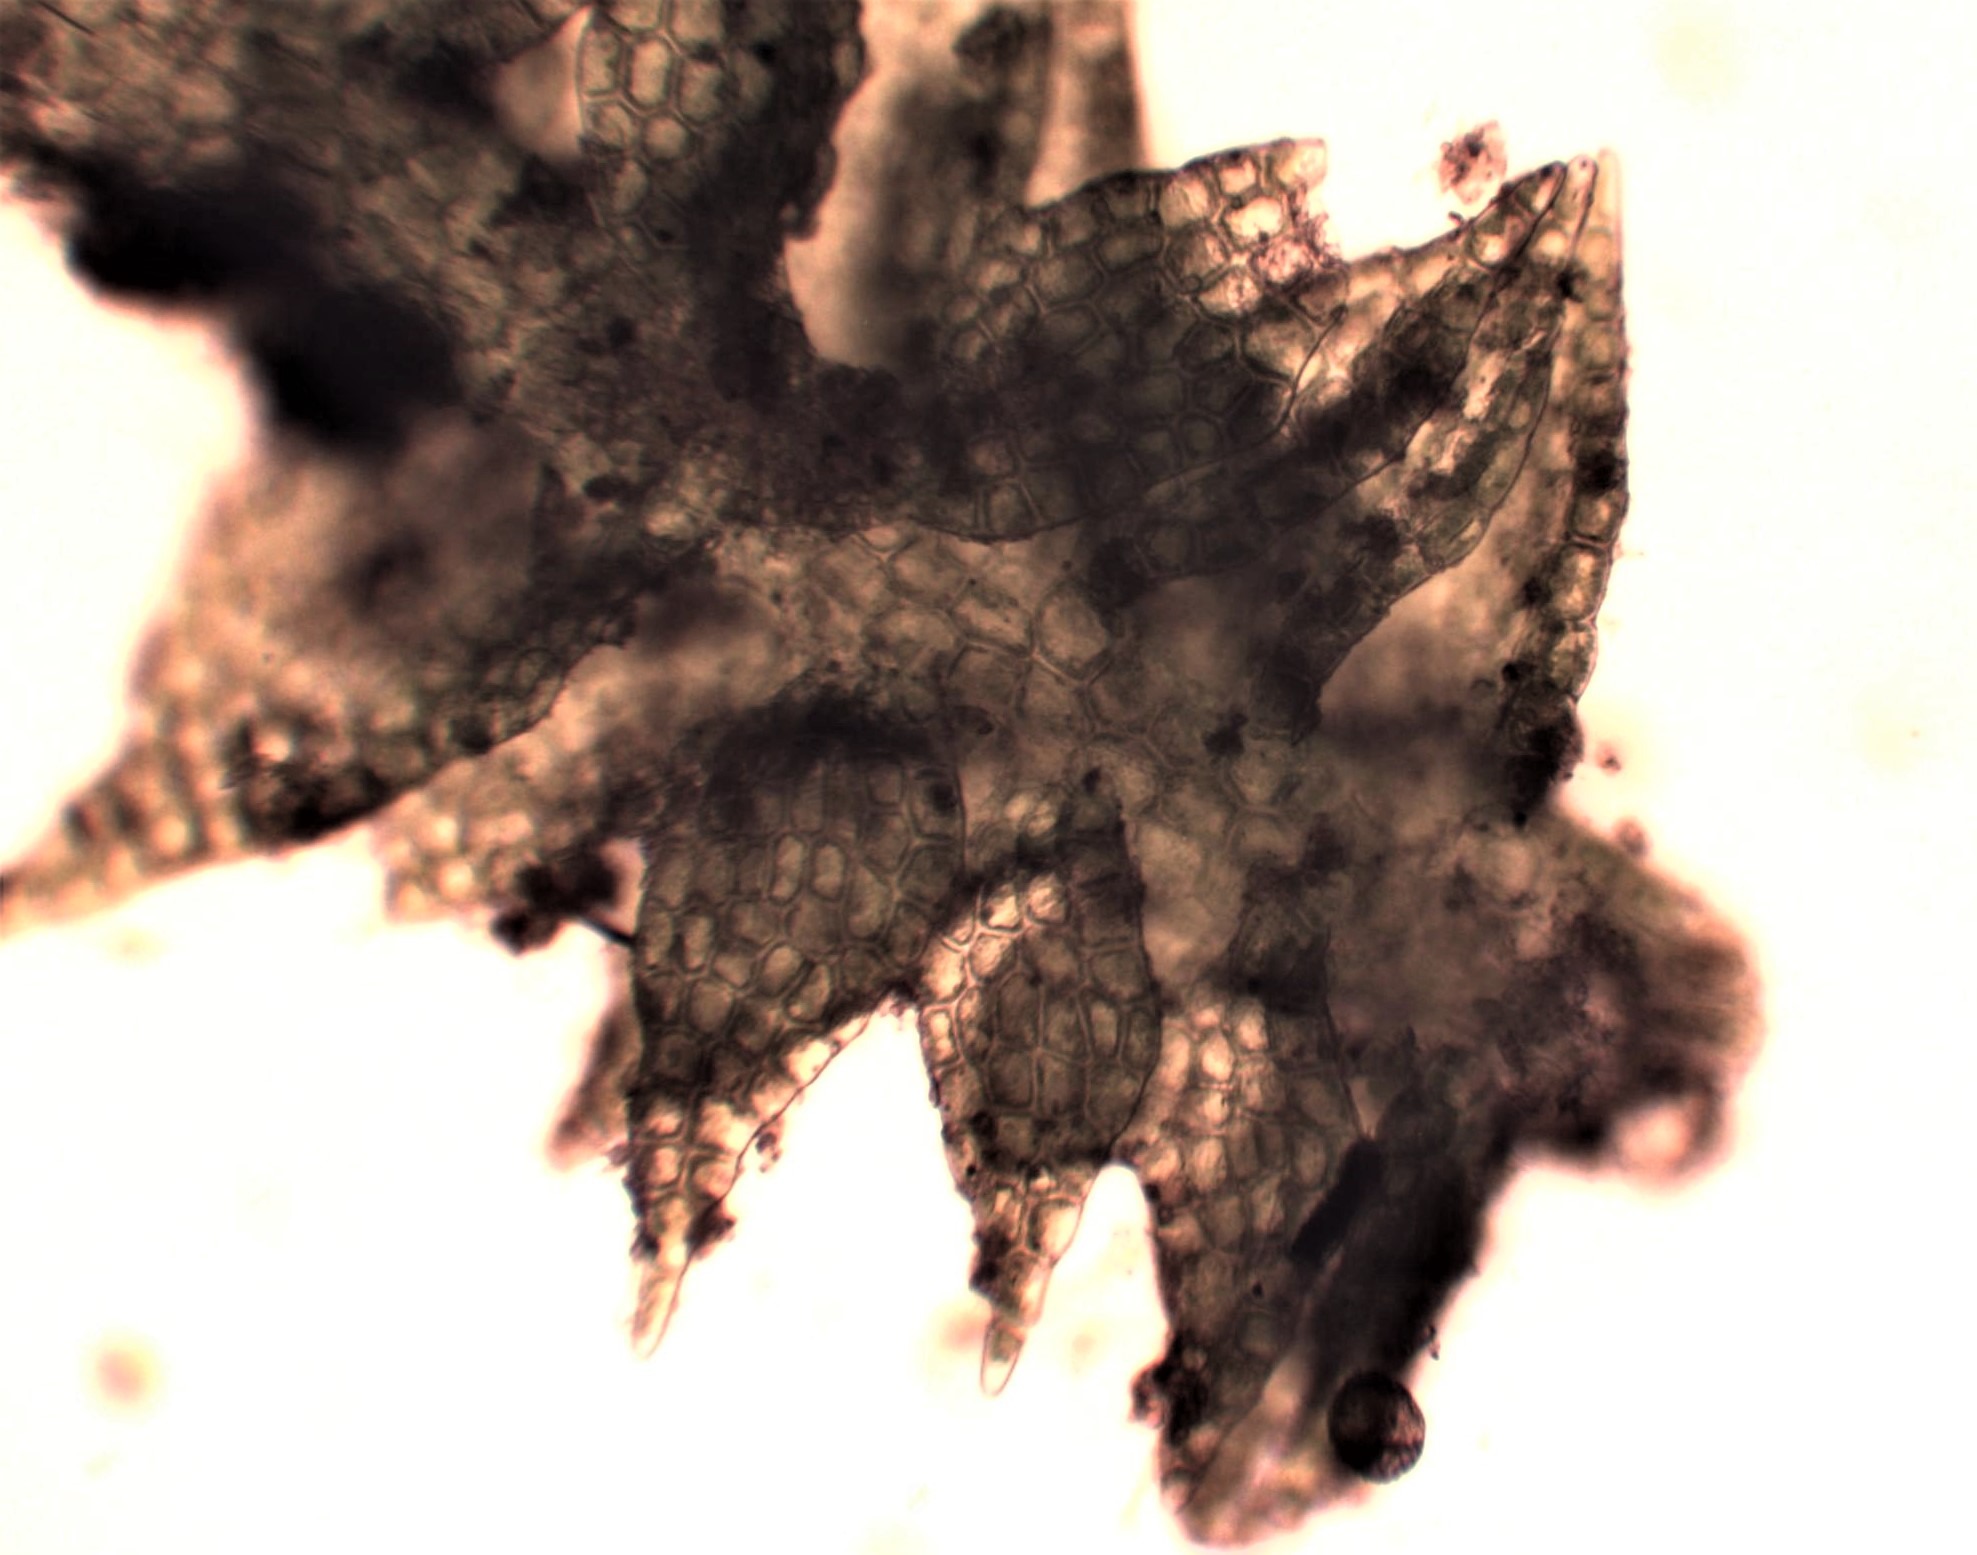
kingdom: Plantae
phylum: Marchantiophyta
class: Jungermanniopsida
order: Jungermanniales
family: Cephaloziaceae
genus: Cephalozia
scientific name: Cephalozia bicuspidata
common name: Tvespidset kantbæger
